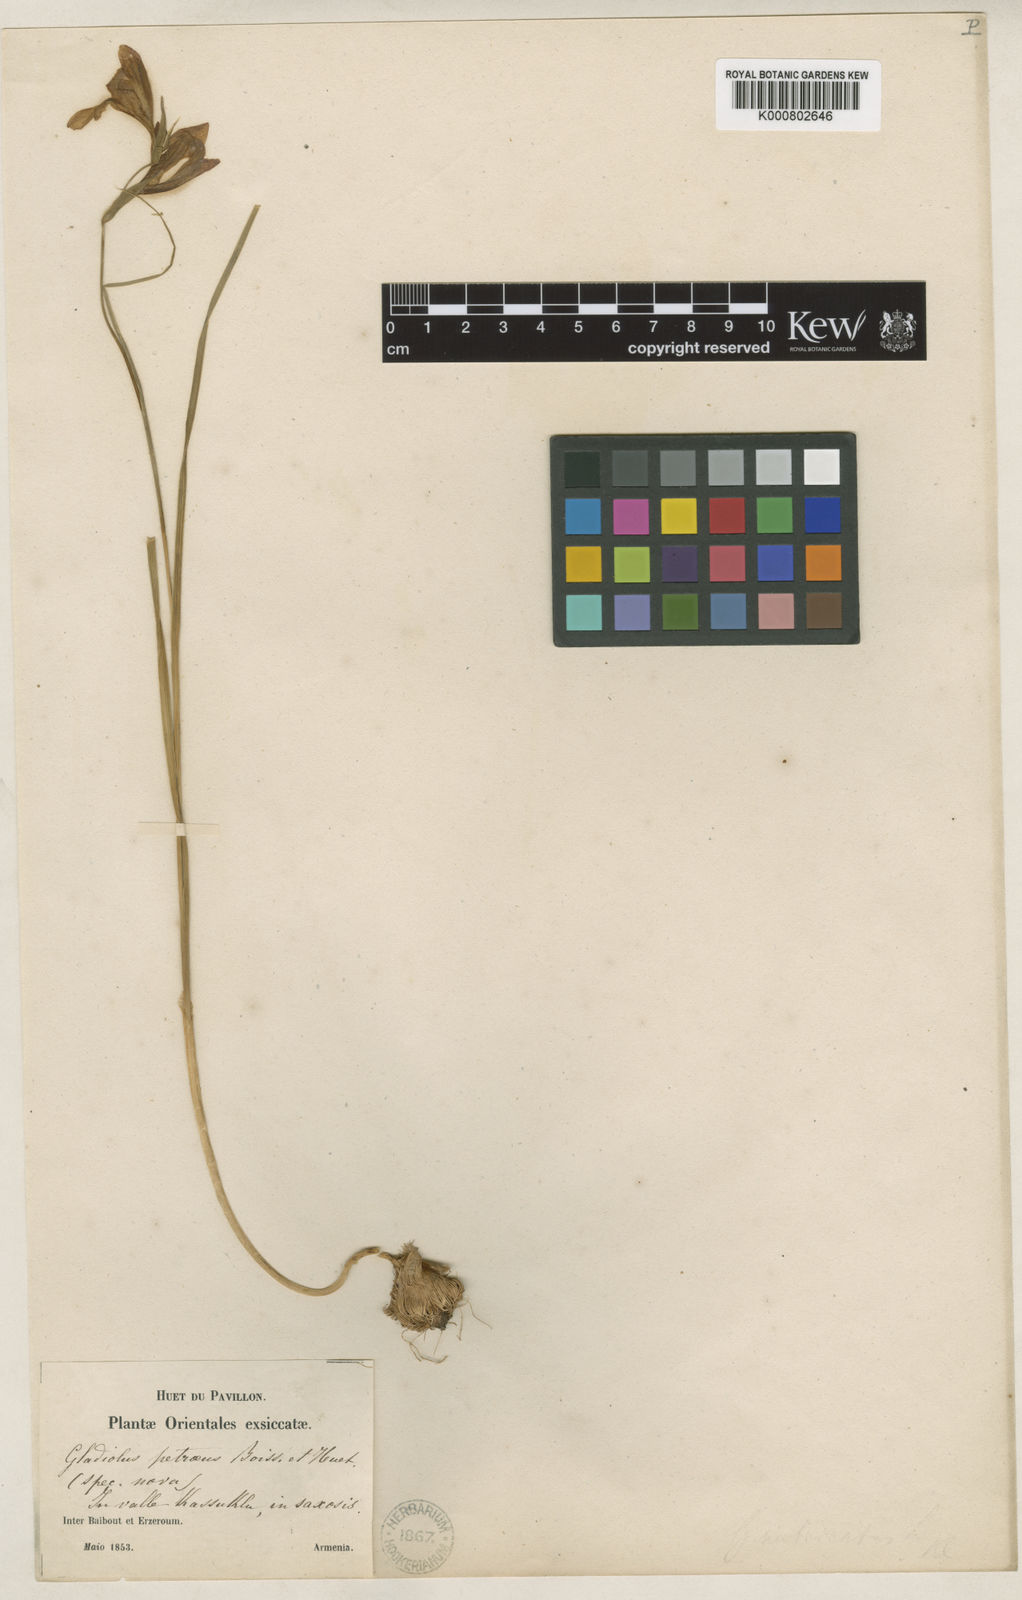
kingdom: Plantae
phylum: Tracheophyta
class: Liliopsida
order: Asparagales
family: Iridaceae
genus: Gladiolus
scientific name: Gladiolus atroviolaceus
